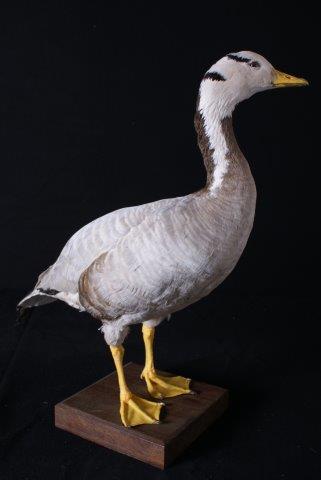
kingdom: Animalia
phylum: Chordata
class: Aves
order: Anseriformes
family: Anatidae
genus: Anser
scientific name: Anser indicus
